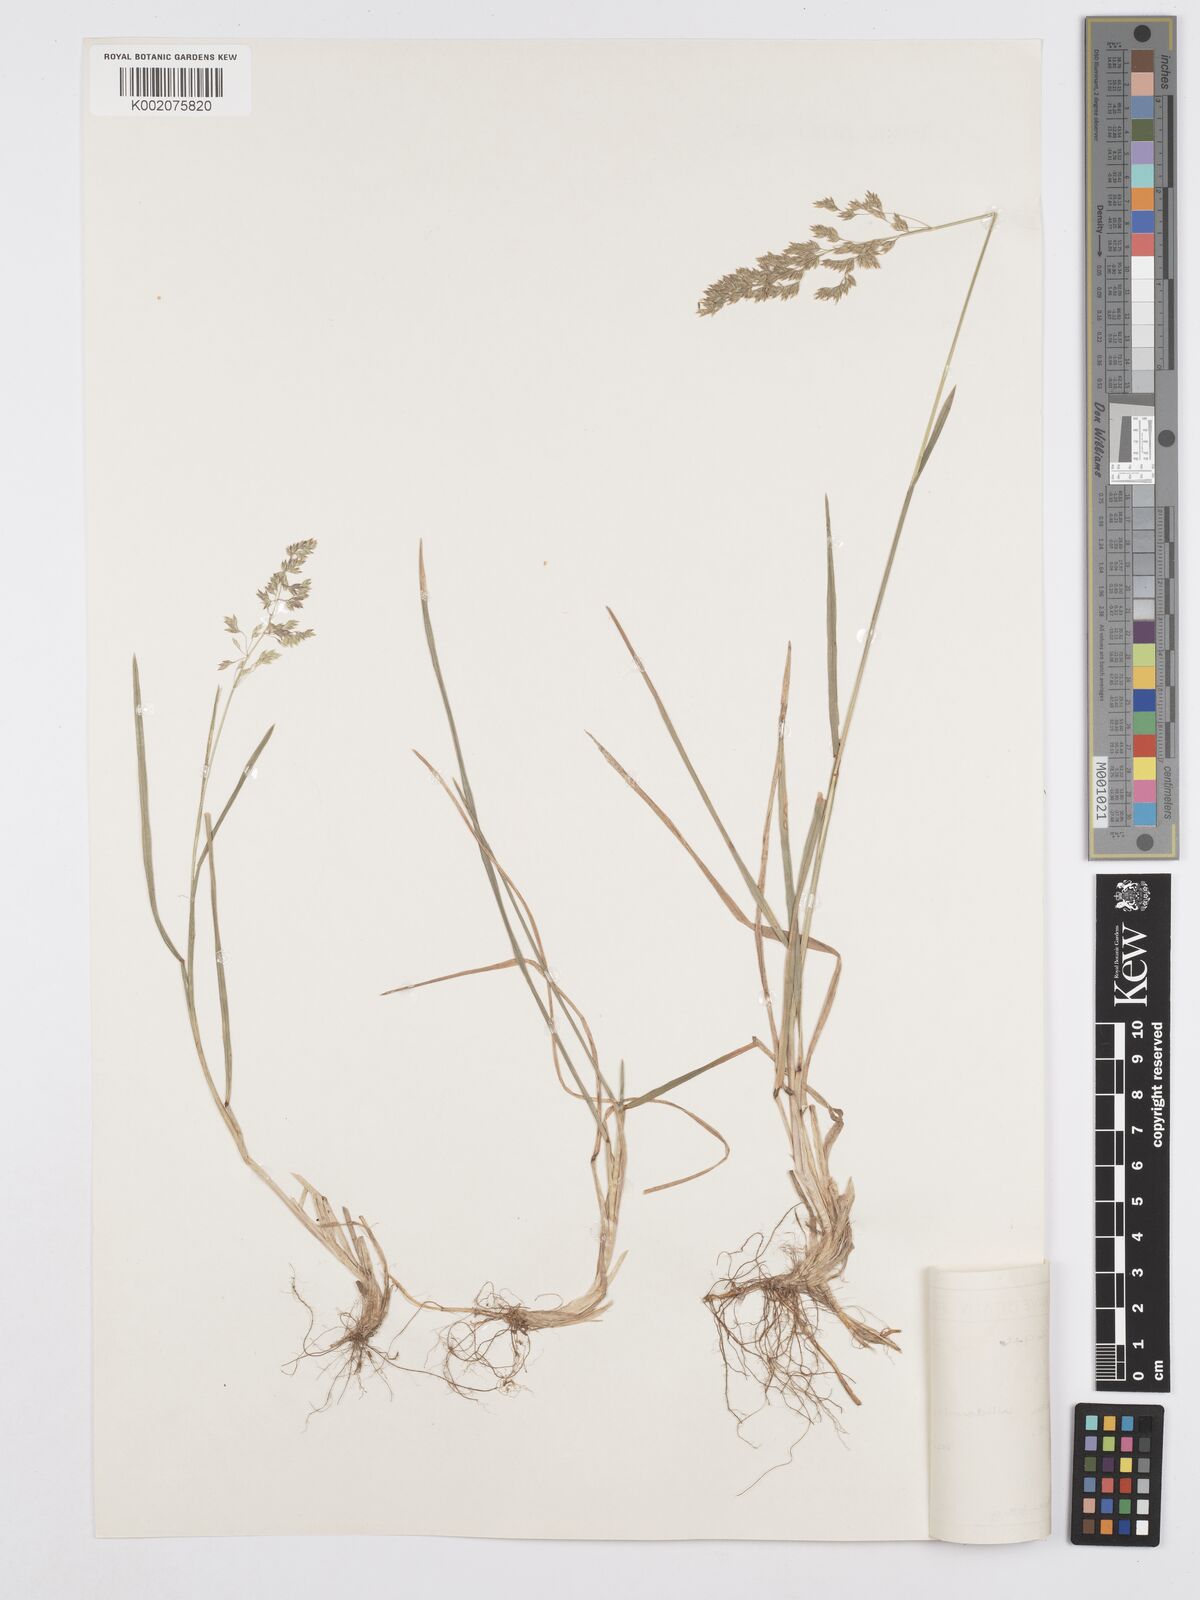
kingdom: Plantae
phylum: Tracheophyta
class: Liliopsida
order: Poales
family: Poaceae
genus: Poa
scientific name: Poa pratensis
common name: Kentucky bluegrass
